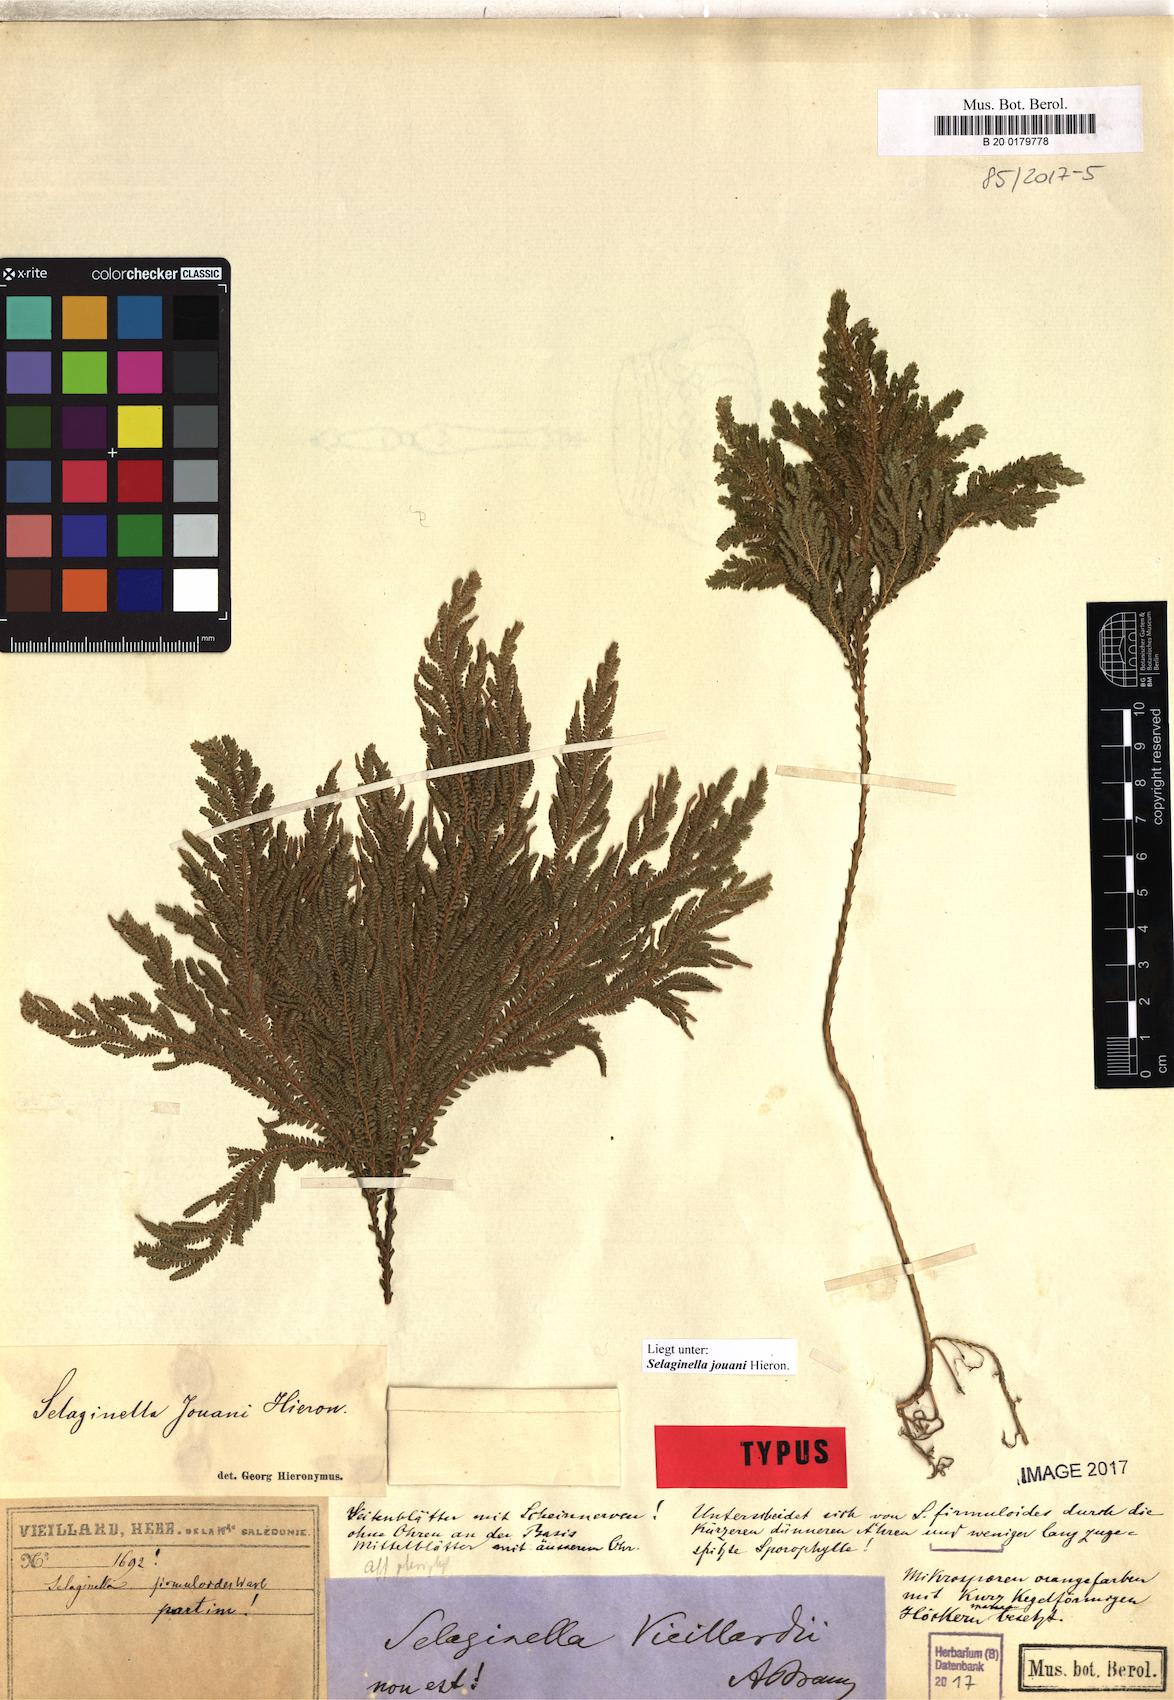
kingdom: Plantae
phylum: Tracheophyta
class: Lycopodiopsida
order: Selaginellales
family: Selaginellaceae
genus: Selaginella
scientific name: Selaginella firmuloides
